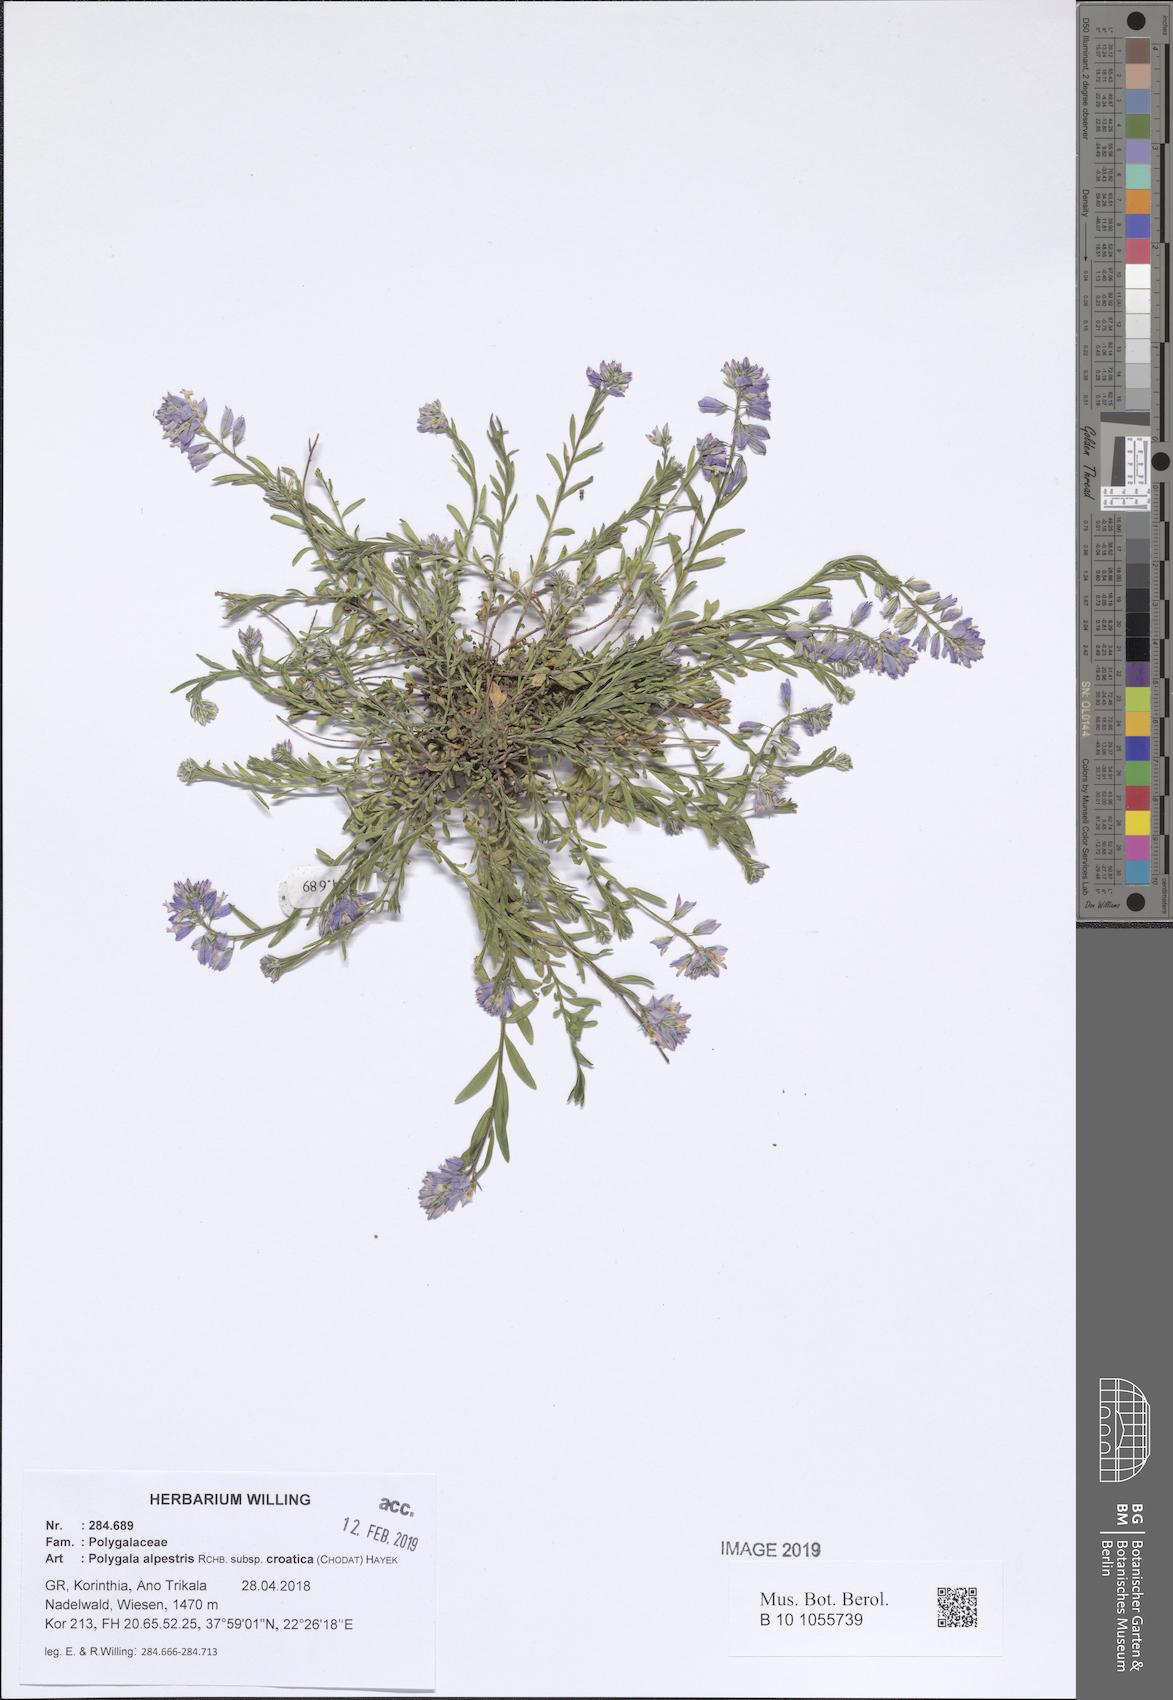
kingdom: Plantae
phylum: Tracheophyta
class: Magnoliopsida
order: Fabales
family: Polygalaceae
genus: Polygala
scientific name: Polygala alpestris
